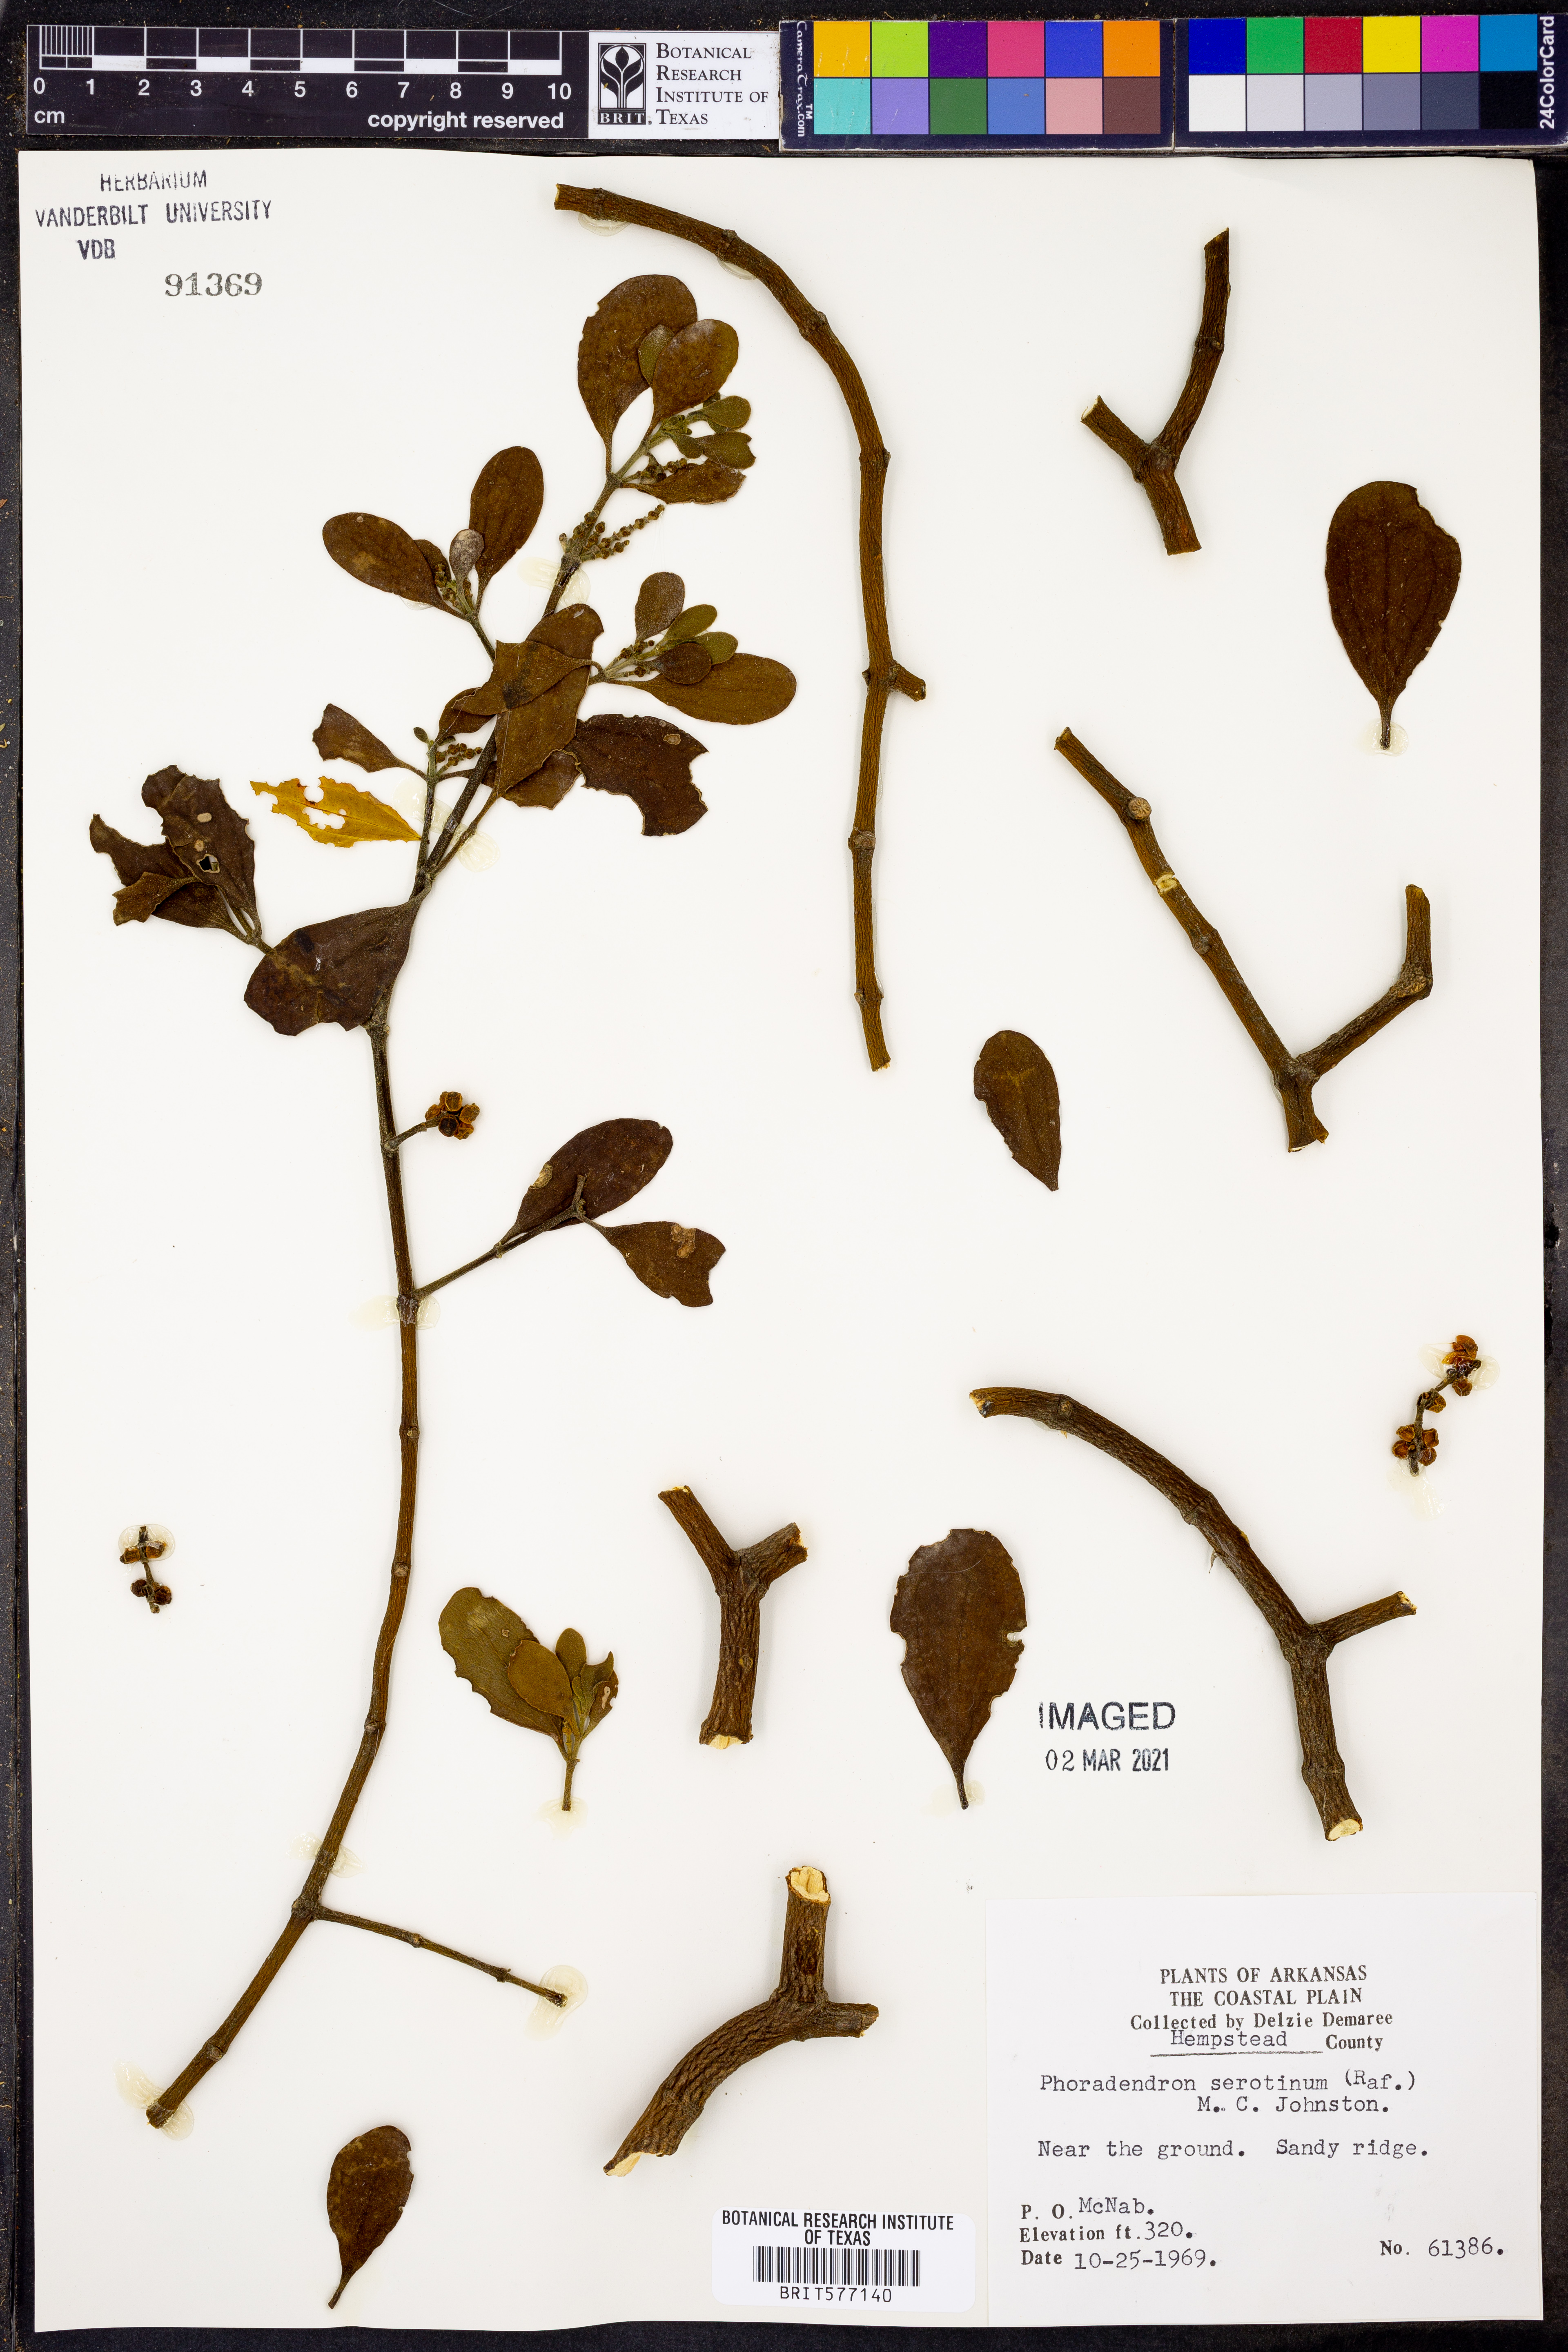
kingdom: Plantae
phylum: Tracheophyta
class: Magnoliopsida
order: Santalales
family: Viscaceae
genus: Phoradendron
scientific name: Phoradendron leucarpum
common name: Pacific mistletoe
